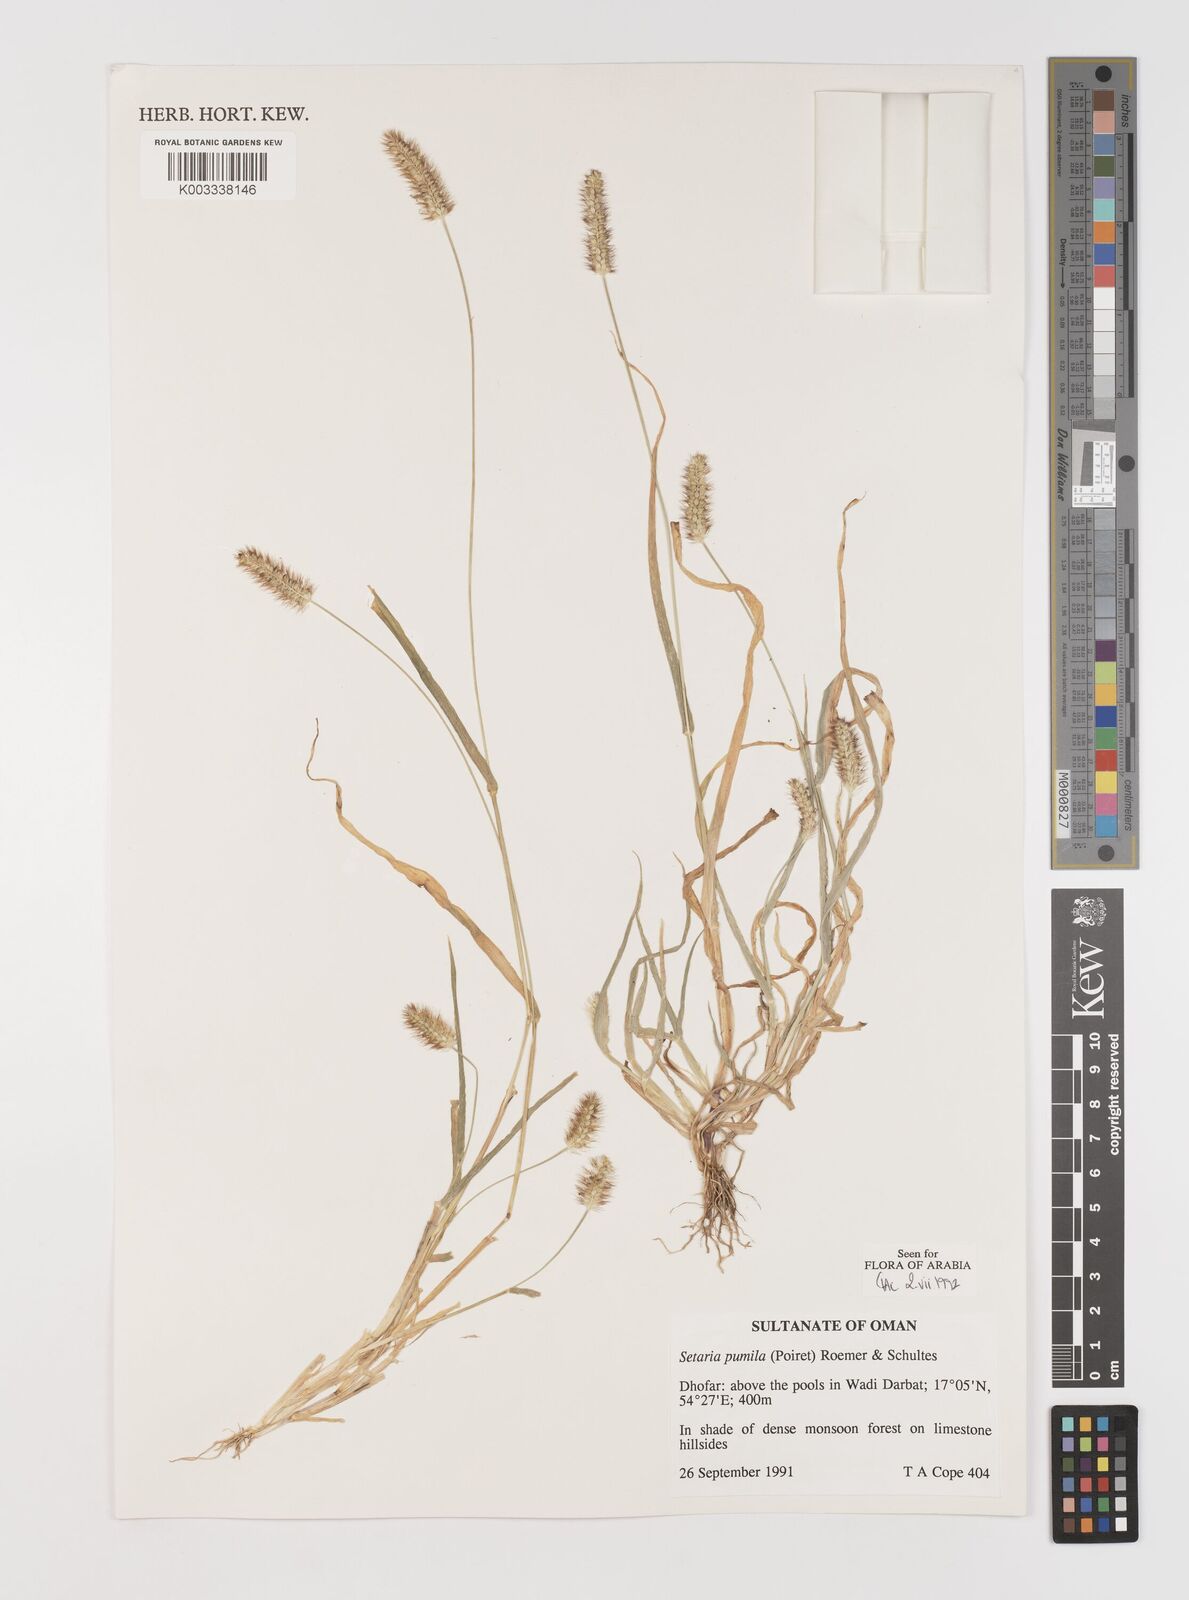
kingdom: Plantae
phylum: Tracheophyta
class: Liliopsida
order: Poales
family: Poaceae
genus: Setaria
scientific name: Setaria pumila
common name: Yellow bristle-grass
